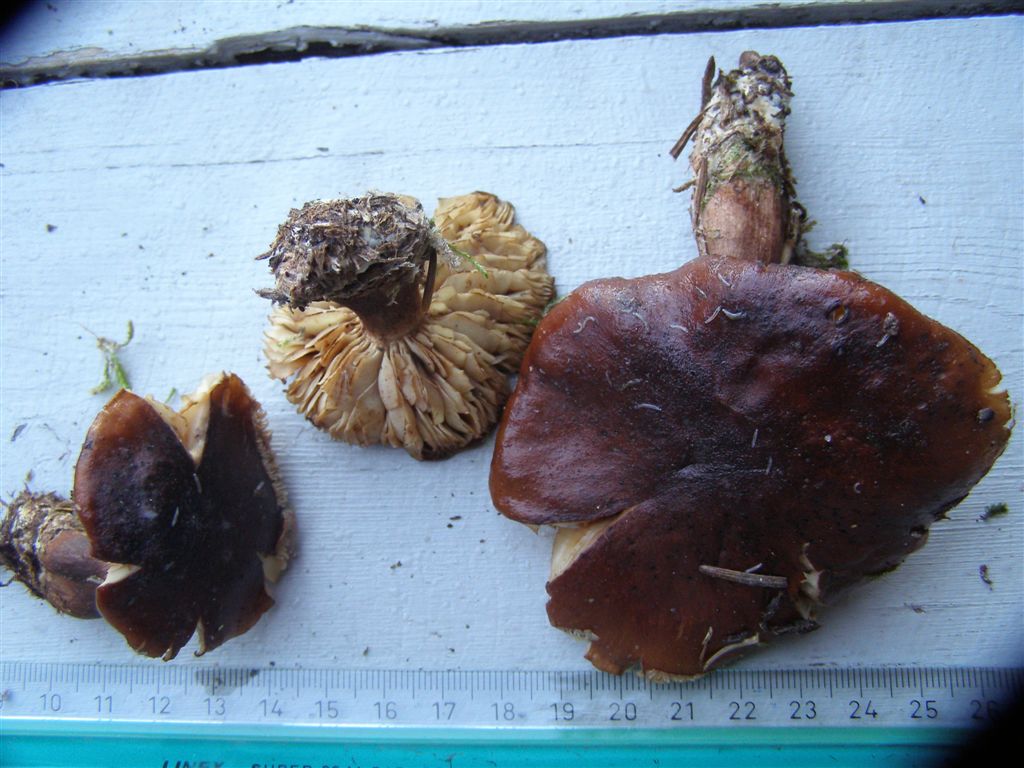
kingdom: Fungi
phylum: Basidiomycota
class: Agaricomycetes
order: Agaricales
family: Tricholomataceae
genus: Tricholoma
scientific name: Tricholoma fulvum
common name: birke-ridderhat
